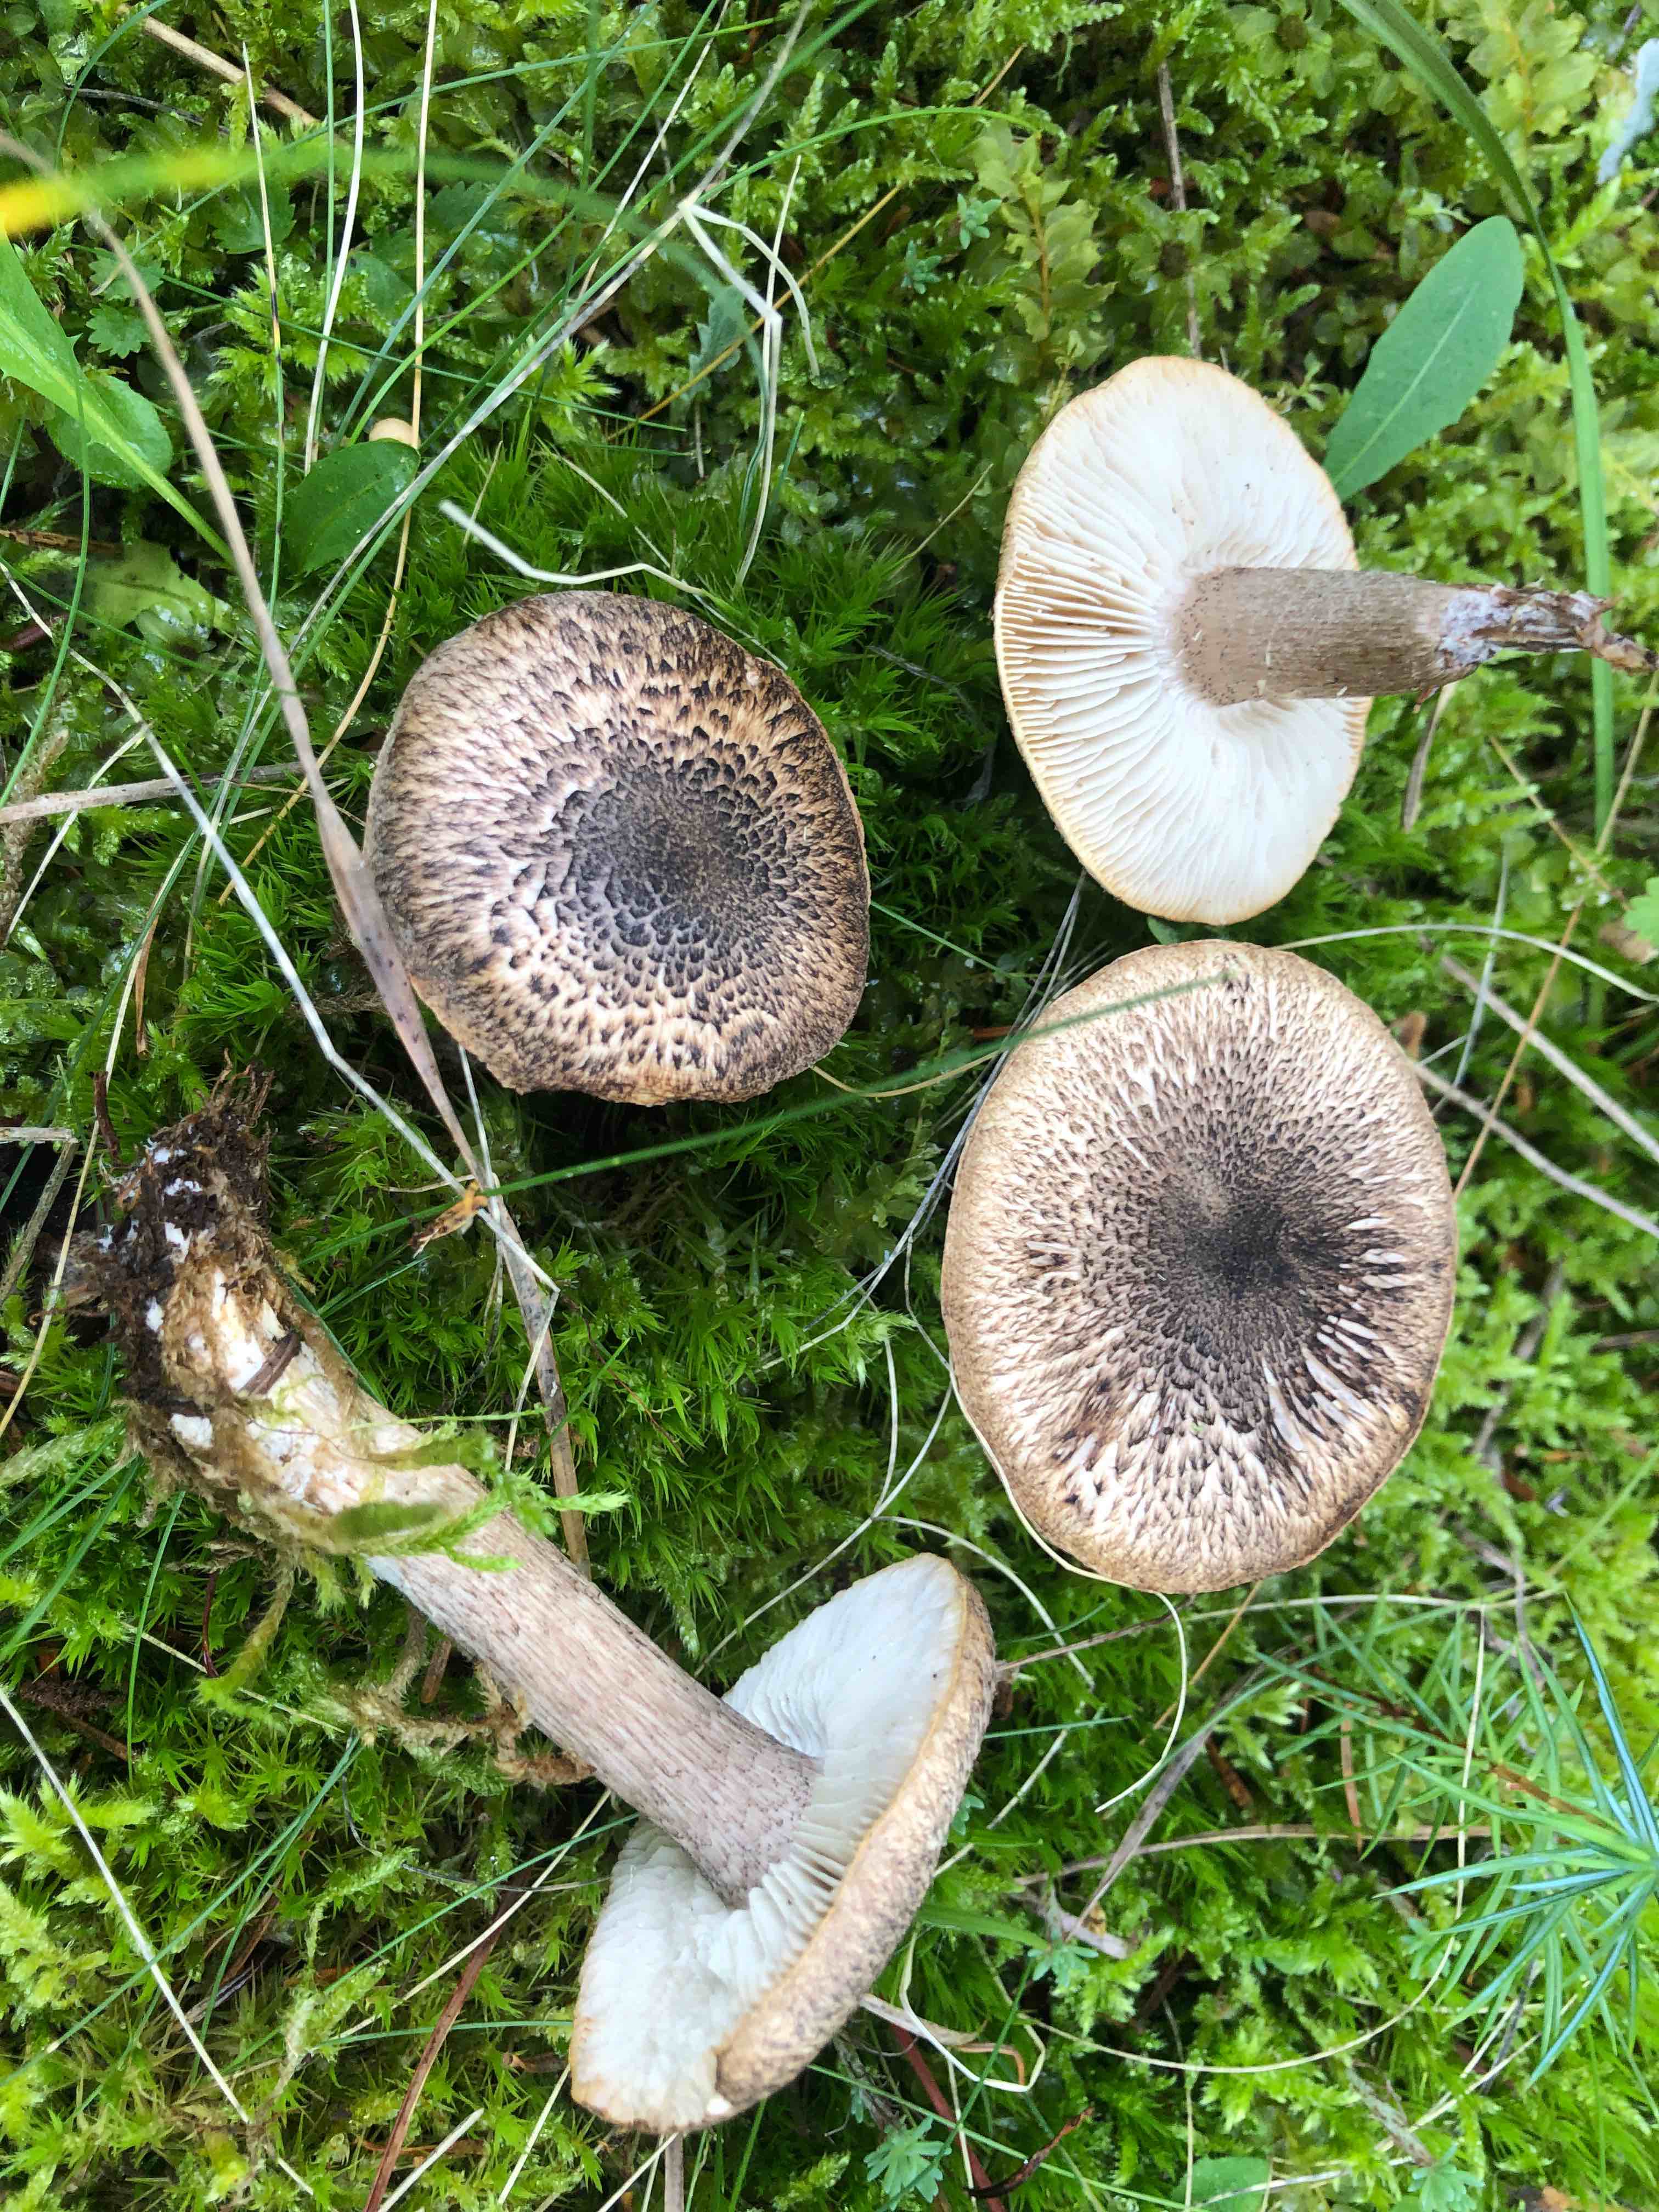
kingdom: Fungi
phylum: Basidiomycota
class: Agaricomycetes
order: Agaricales
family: Tricholomataceae
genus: Tricholoma
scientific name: Tricholoma atrosquamosum
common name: sortskællet ridderhat
